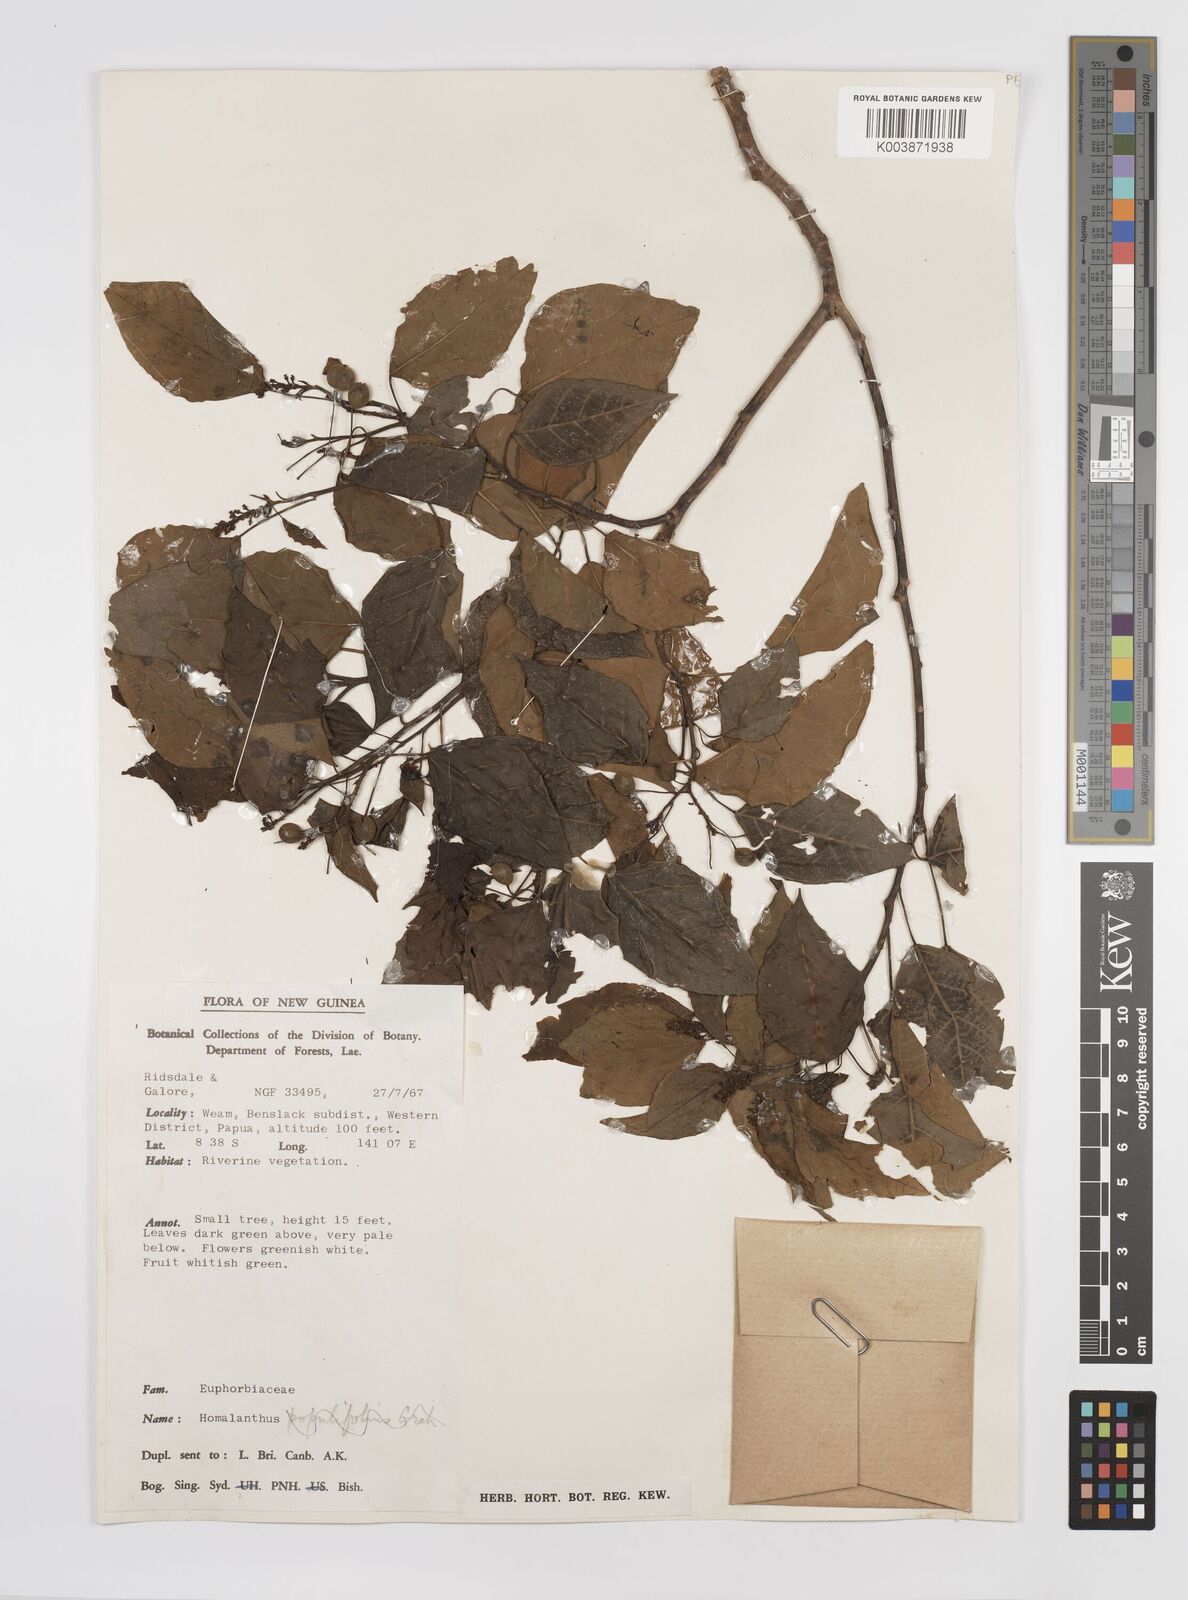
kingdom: Plantae
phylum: Tracheophyta
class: Magnoliopsida
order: Malpighiales
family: Euphorbiaceae
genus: Homalanthus
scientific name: Homalanthus novoguineensis
